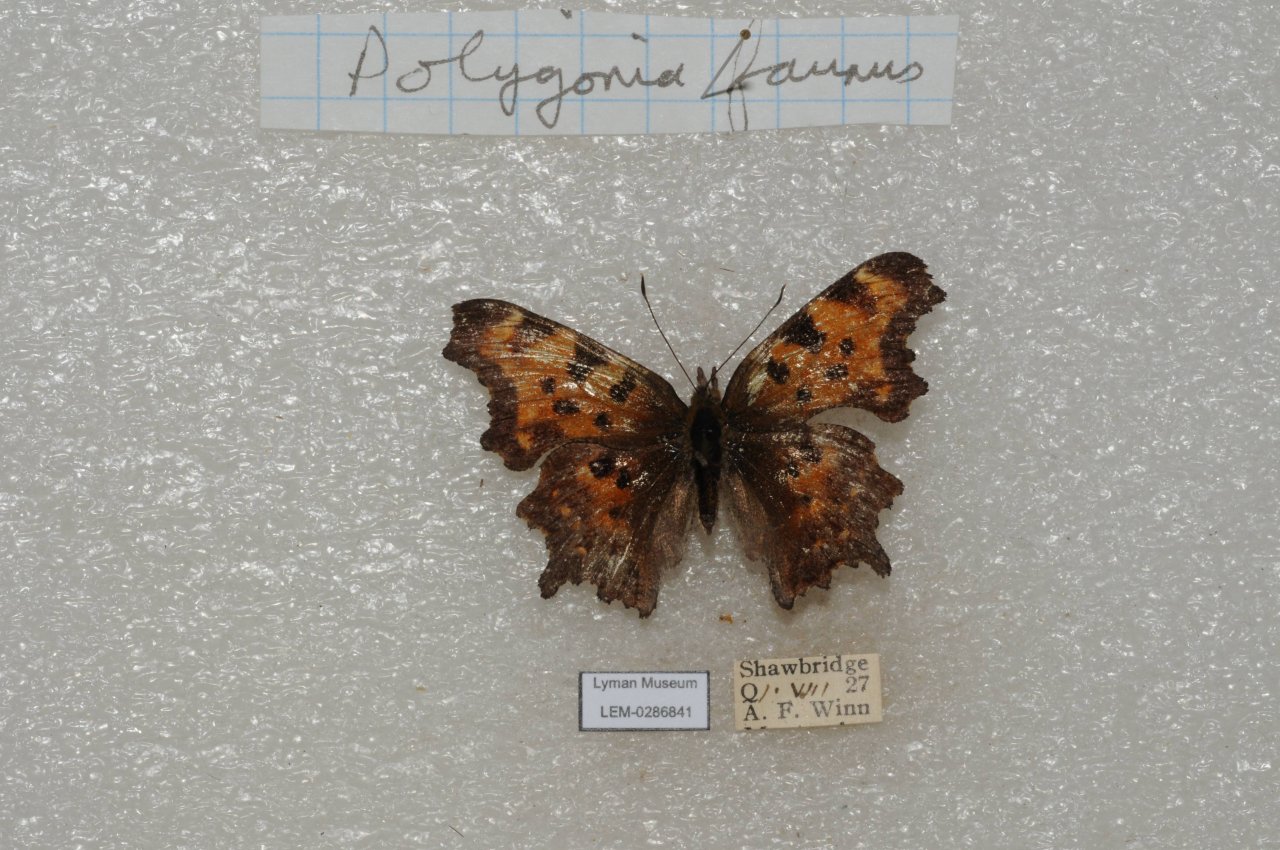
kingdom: Animalia
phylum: Arthropoda
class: Insecta
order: Lepidoptera
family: Nymphalidae
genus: Polygonia
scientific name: Polygonia faunus
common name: Green Comma
